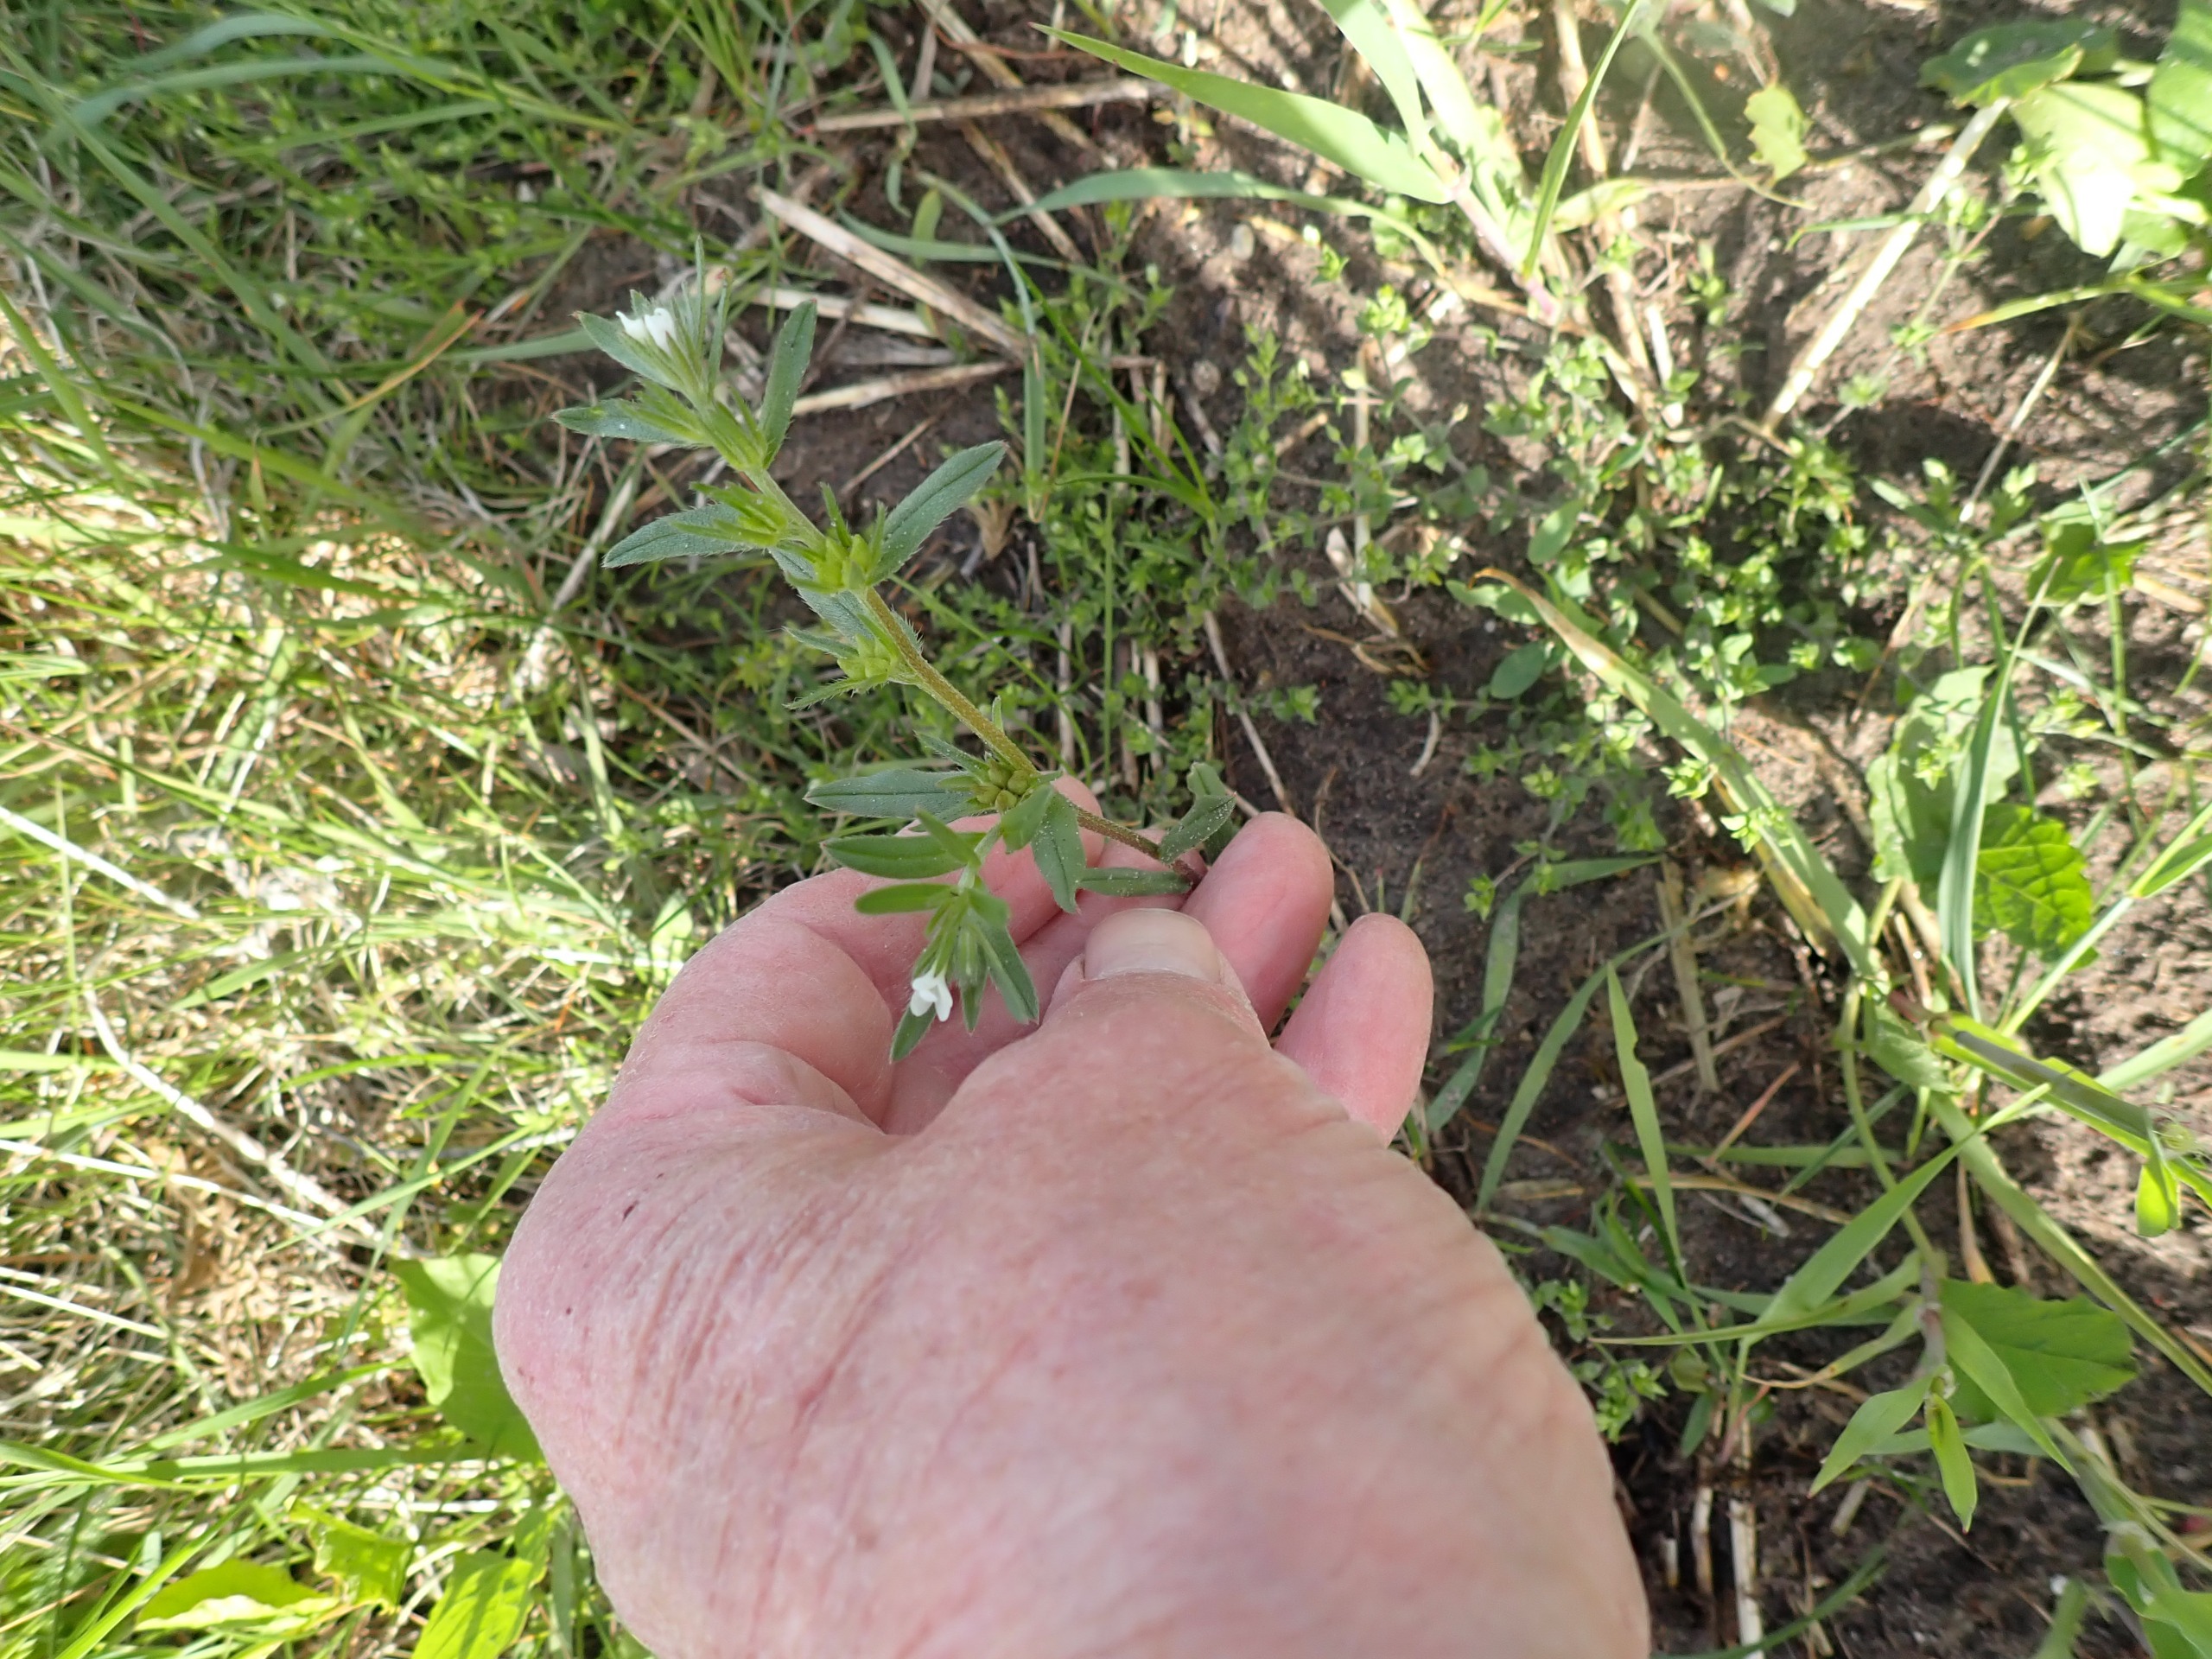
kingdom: Plantae
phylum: Tracheophyta
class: Magnoliopsida
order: Boraginales
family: Boraginaceae
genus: Buglossoides
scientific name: Buglossoides arvensis
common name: Rynket stenfrø
